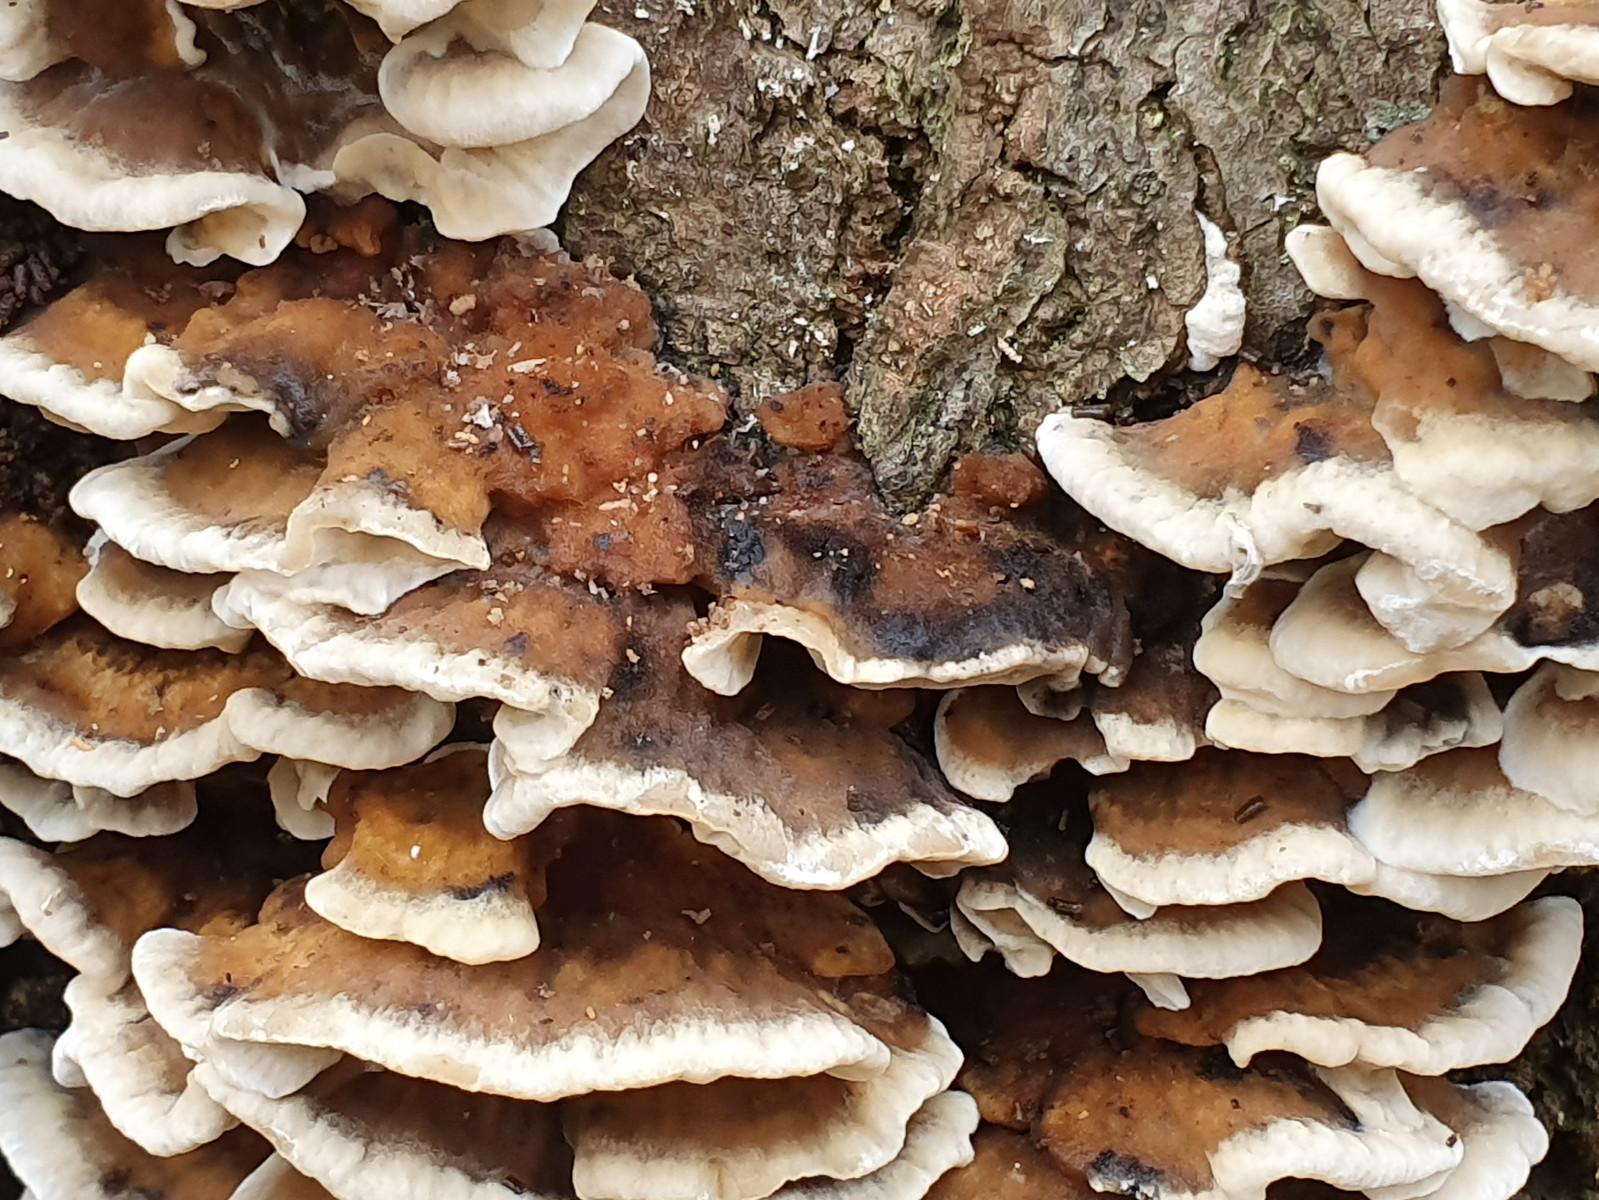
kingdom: Fungi
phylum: Basidiomycota
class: Agaricomycetes
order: Polyporales
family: Phanerochaetaceae
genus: Bjerkandera
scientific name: Bjerkandera adusta
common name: sveden sodporesvamp
